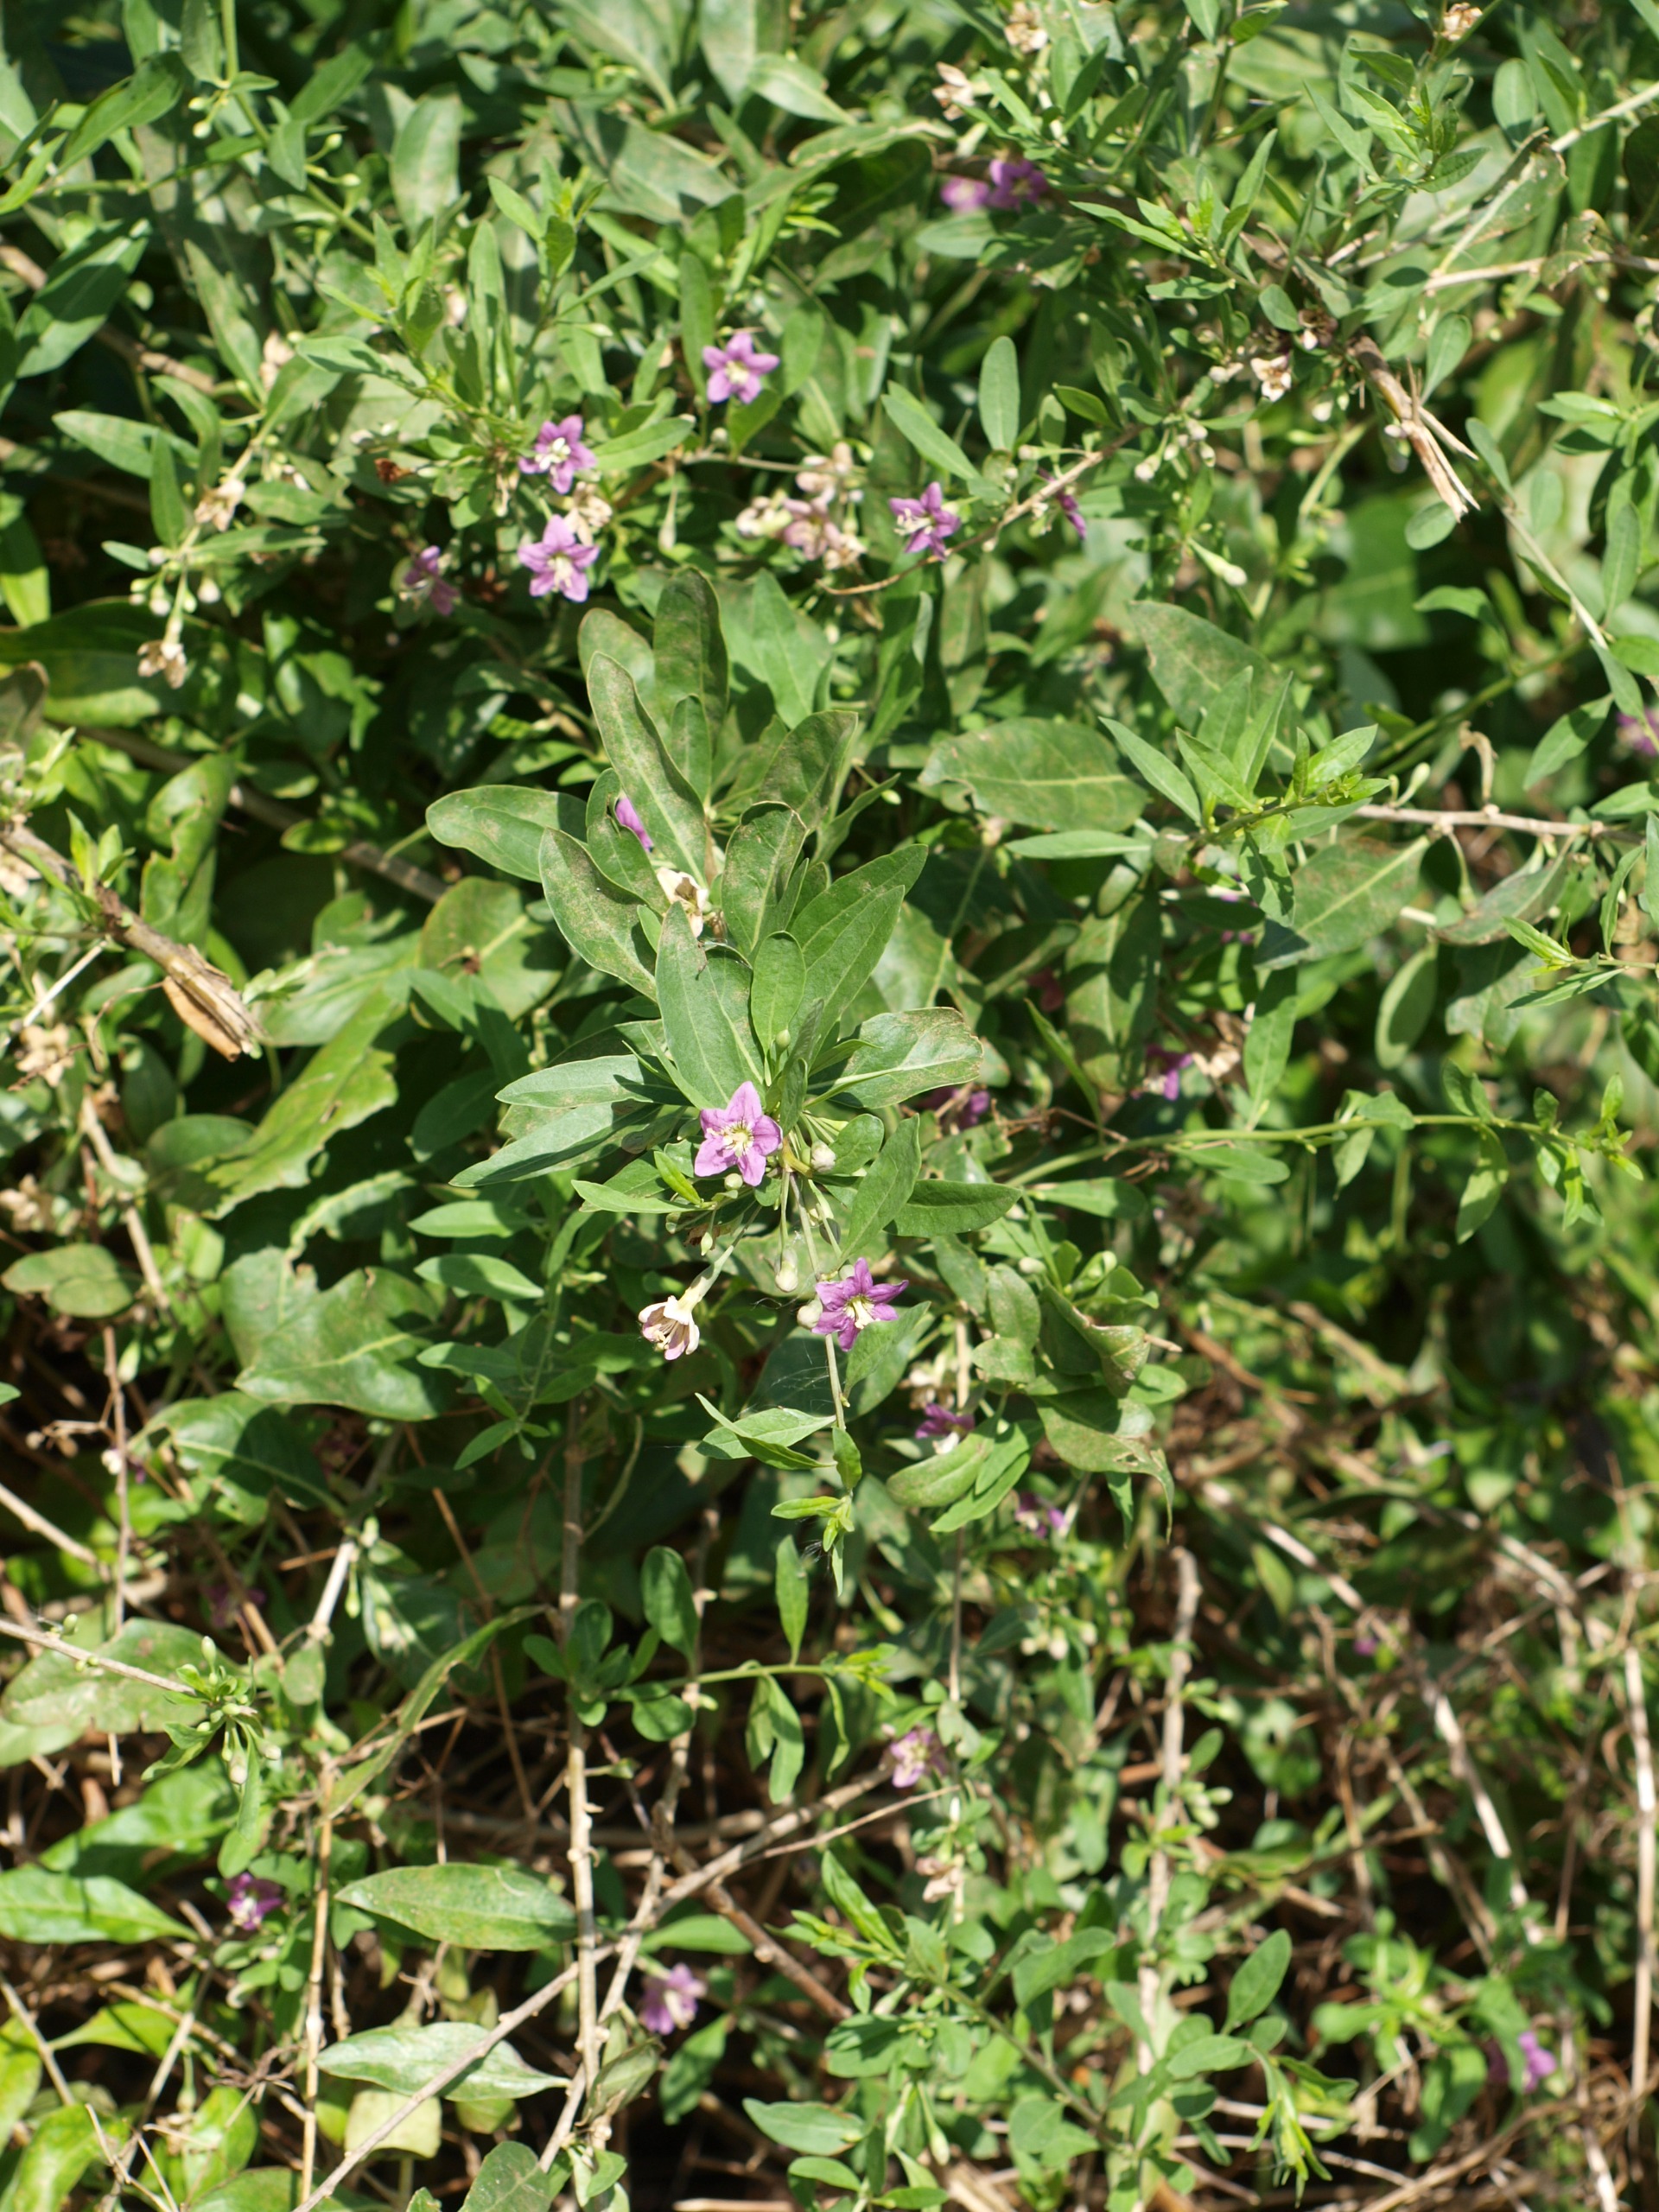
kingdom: Plantae
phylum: Tracheophyta
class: Magnoliopsida
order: Solanales
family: Solanaceae
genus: Lycium
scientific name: Lycium barbarum
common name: Bukketorn
